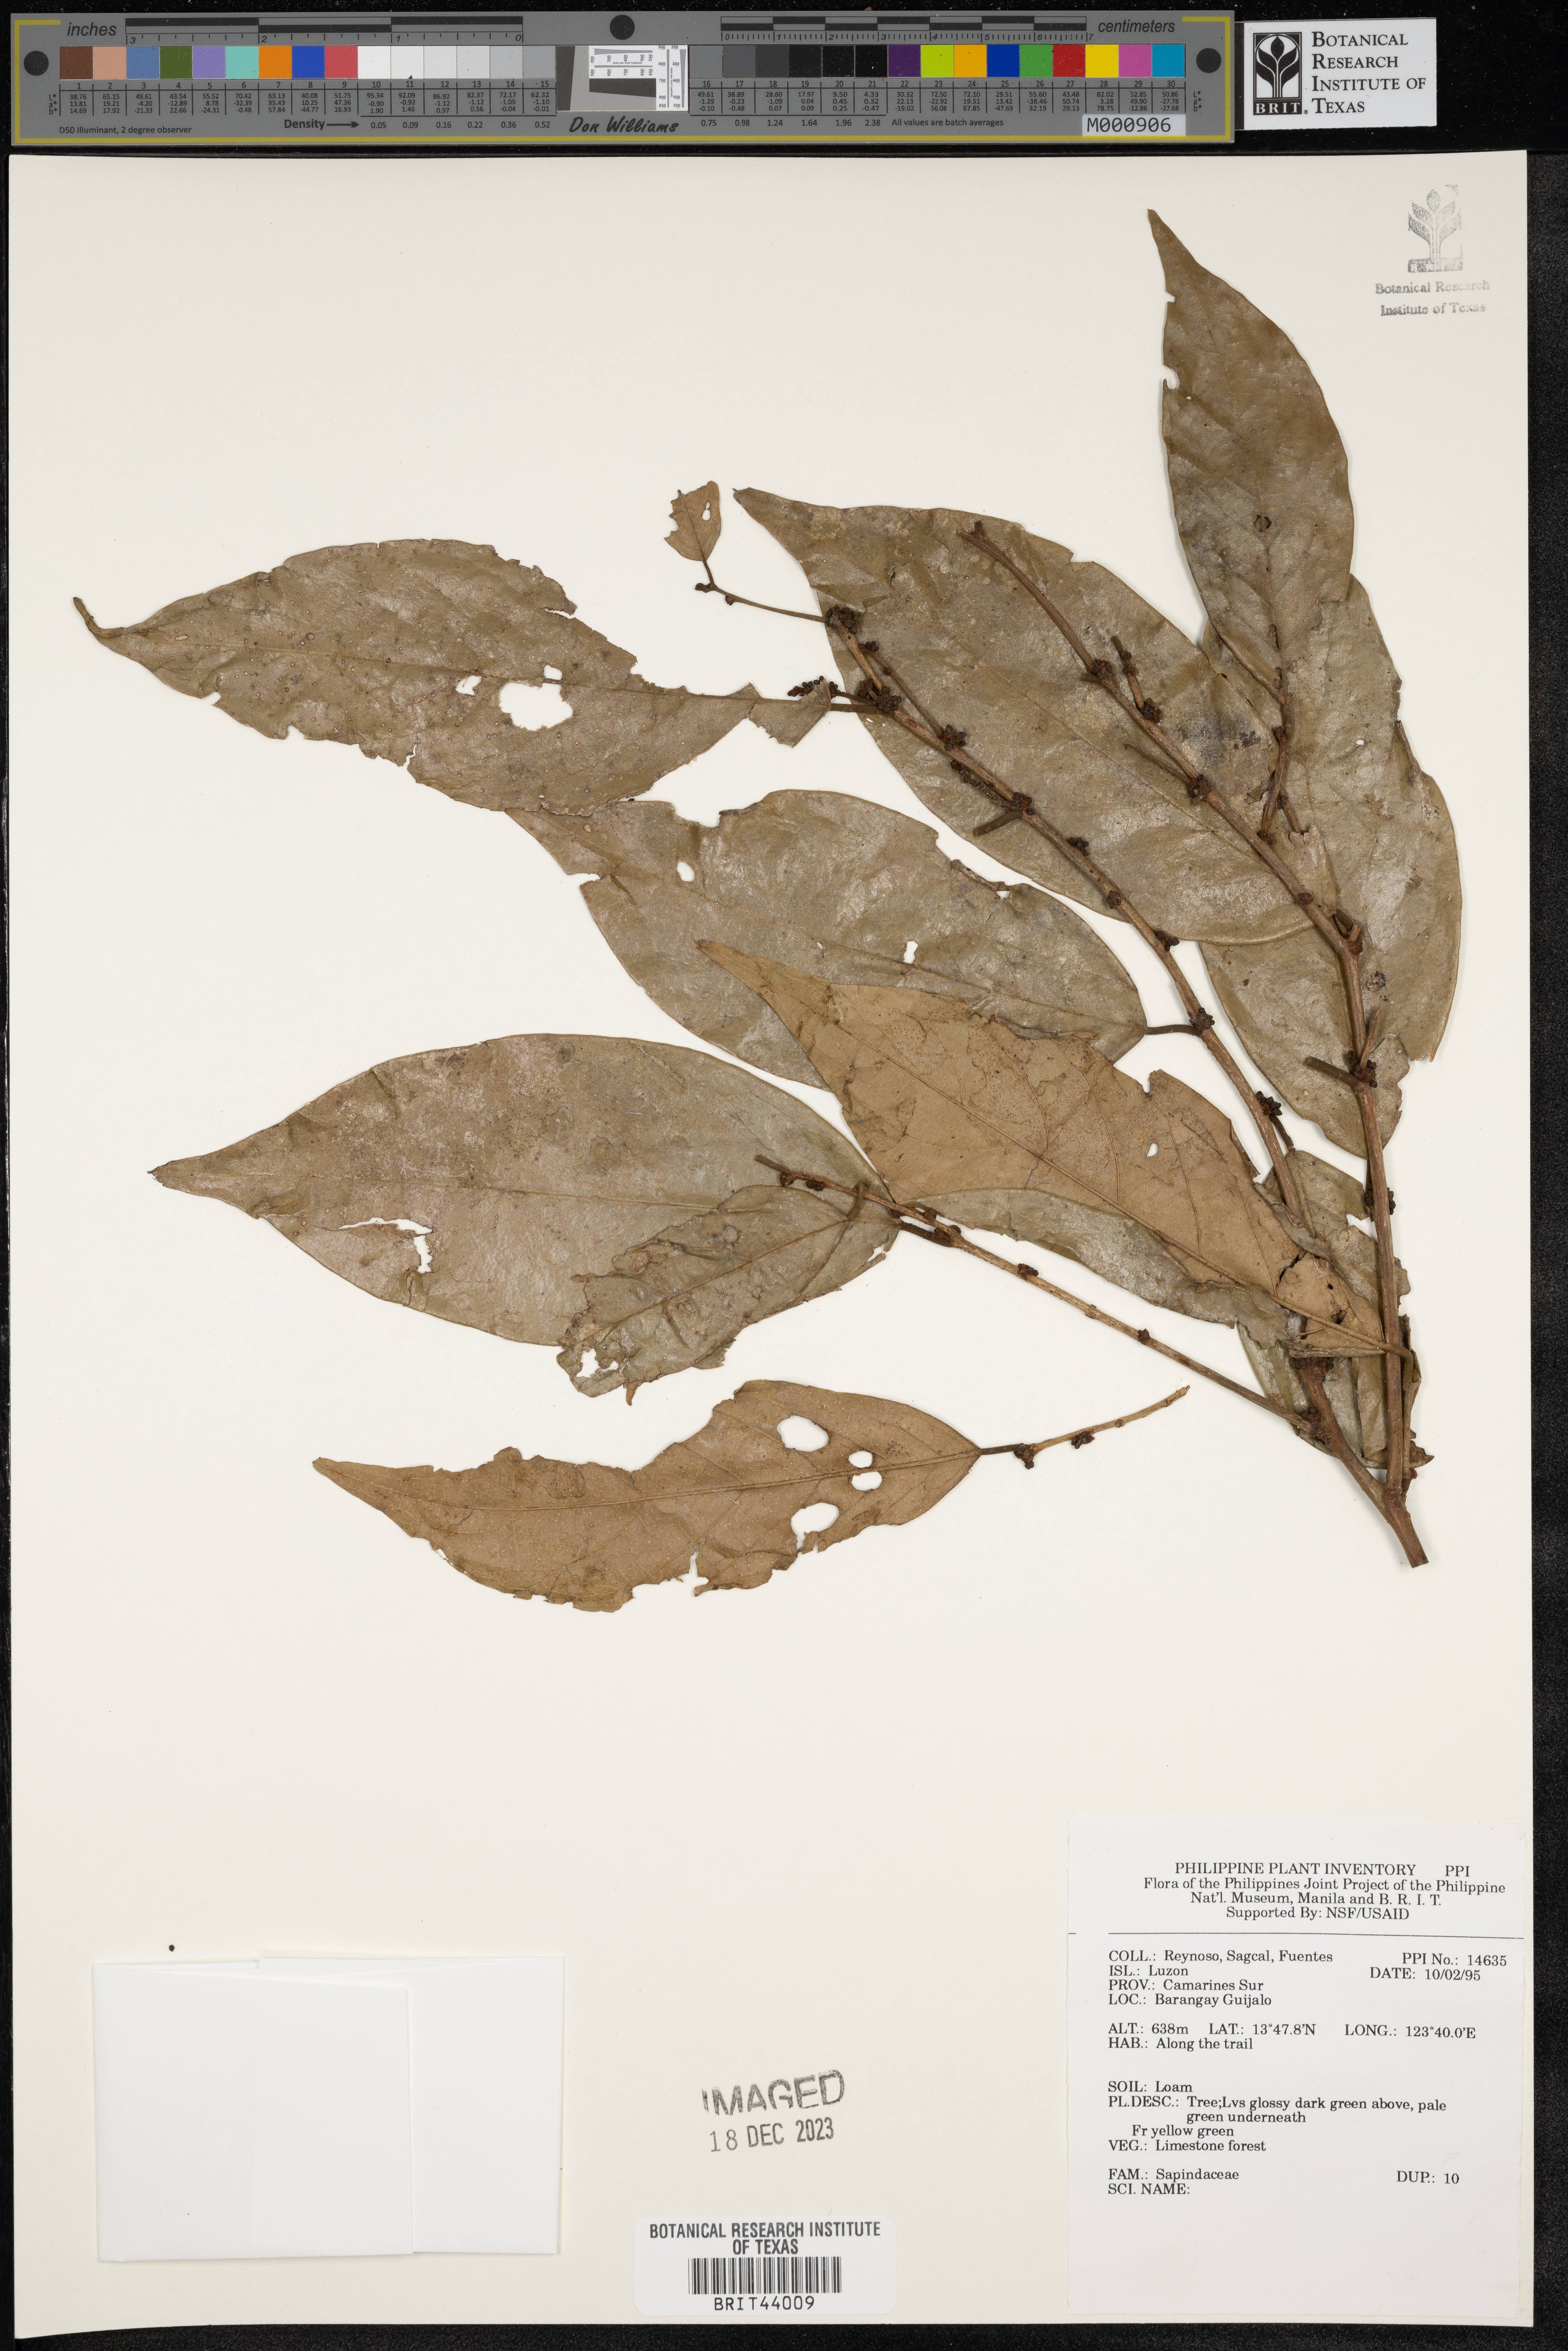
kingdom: Plantae
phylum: Tracheophyta
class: Magnoliopsida
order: Sapindales
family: Sapindaceae
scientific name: Sapindaceae
